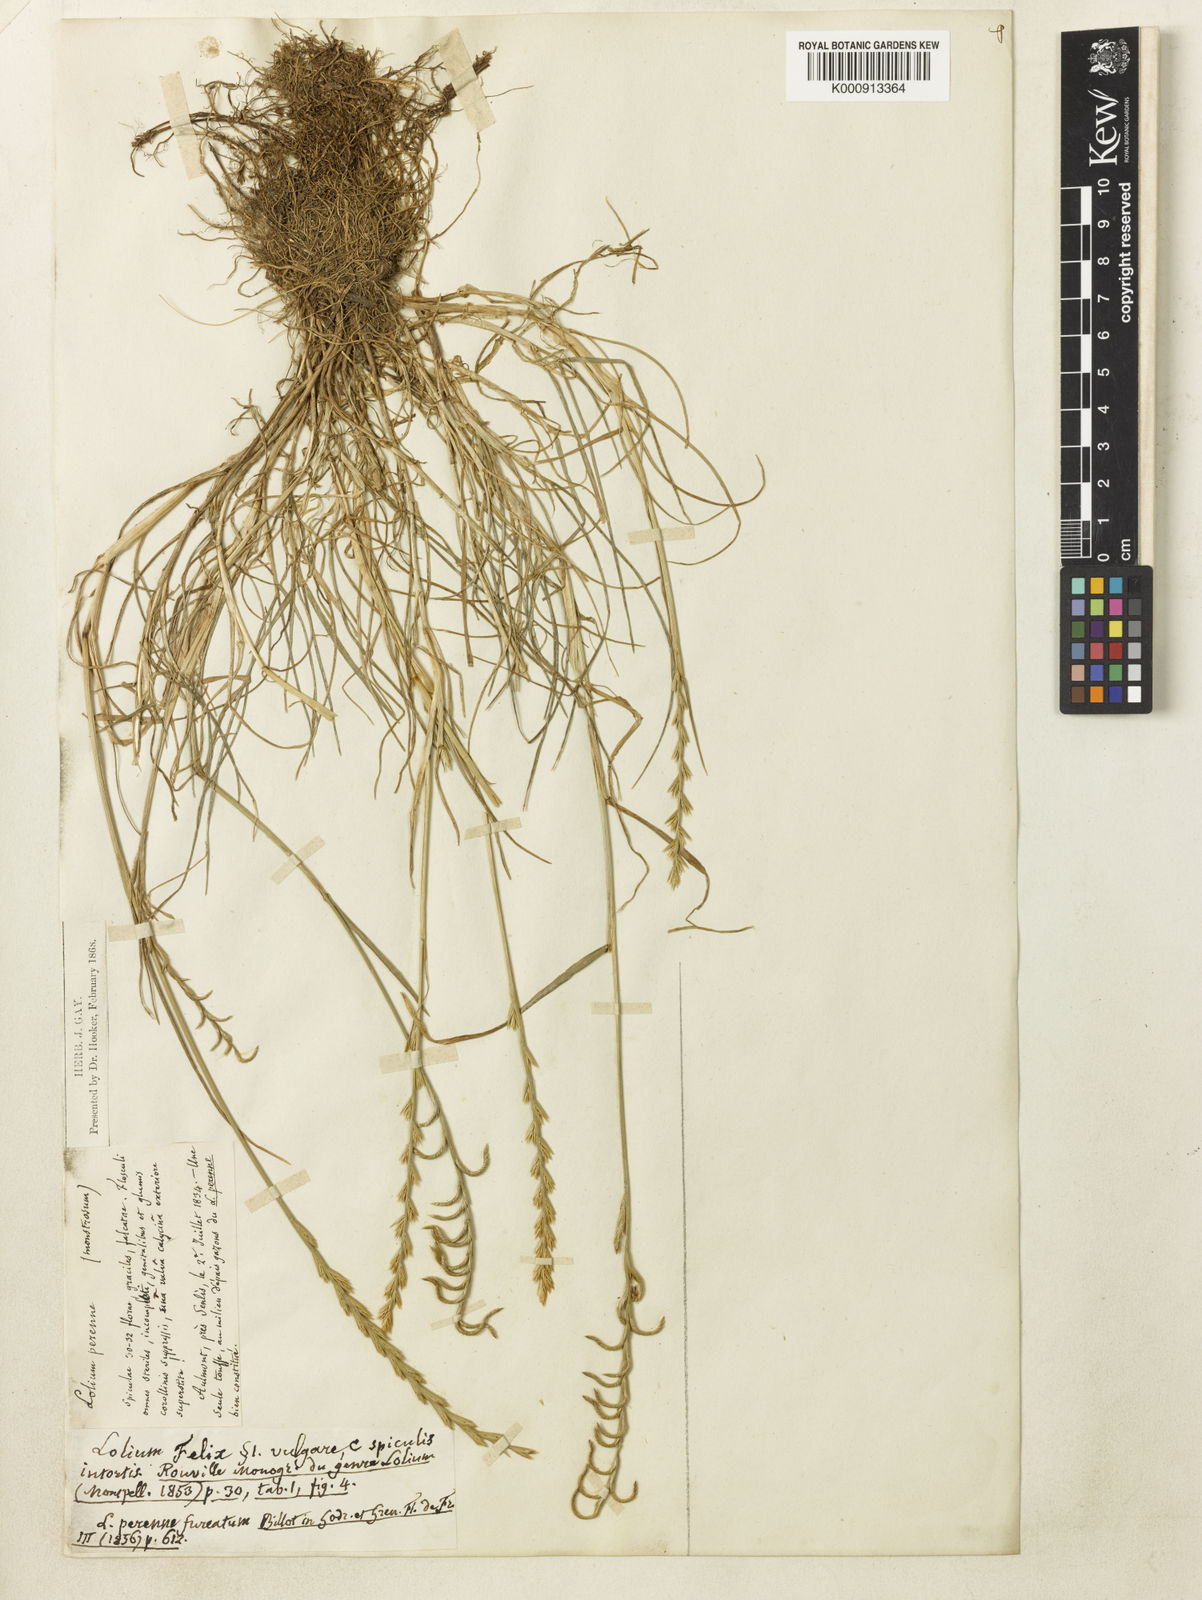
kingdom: Plantae
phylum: Tracheophyta
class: Liliopsida
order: Poales
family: Poaceae
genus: Lolium
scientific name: Lolium perenne
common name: Perennial ryegrass
